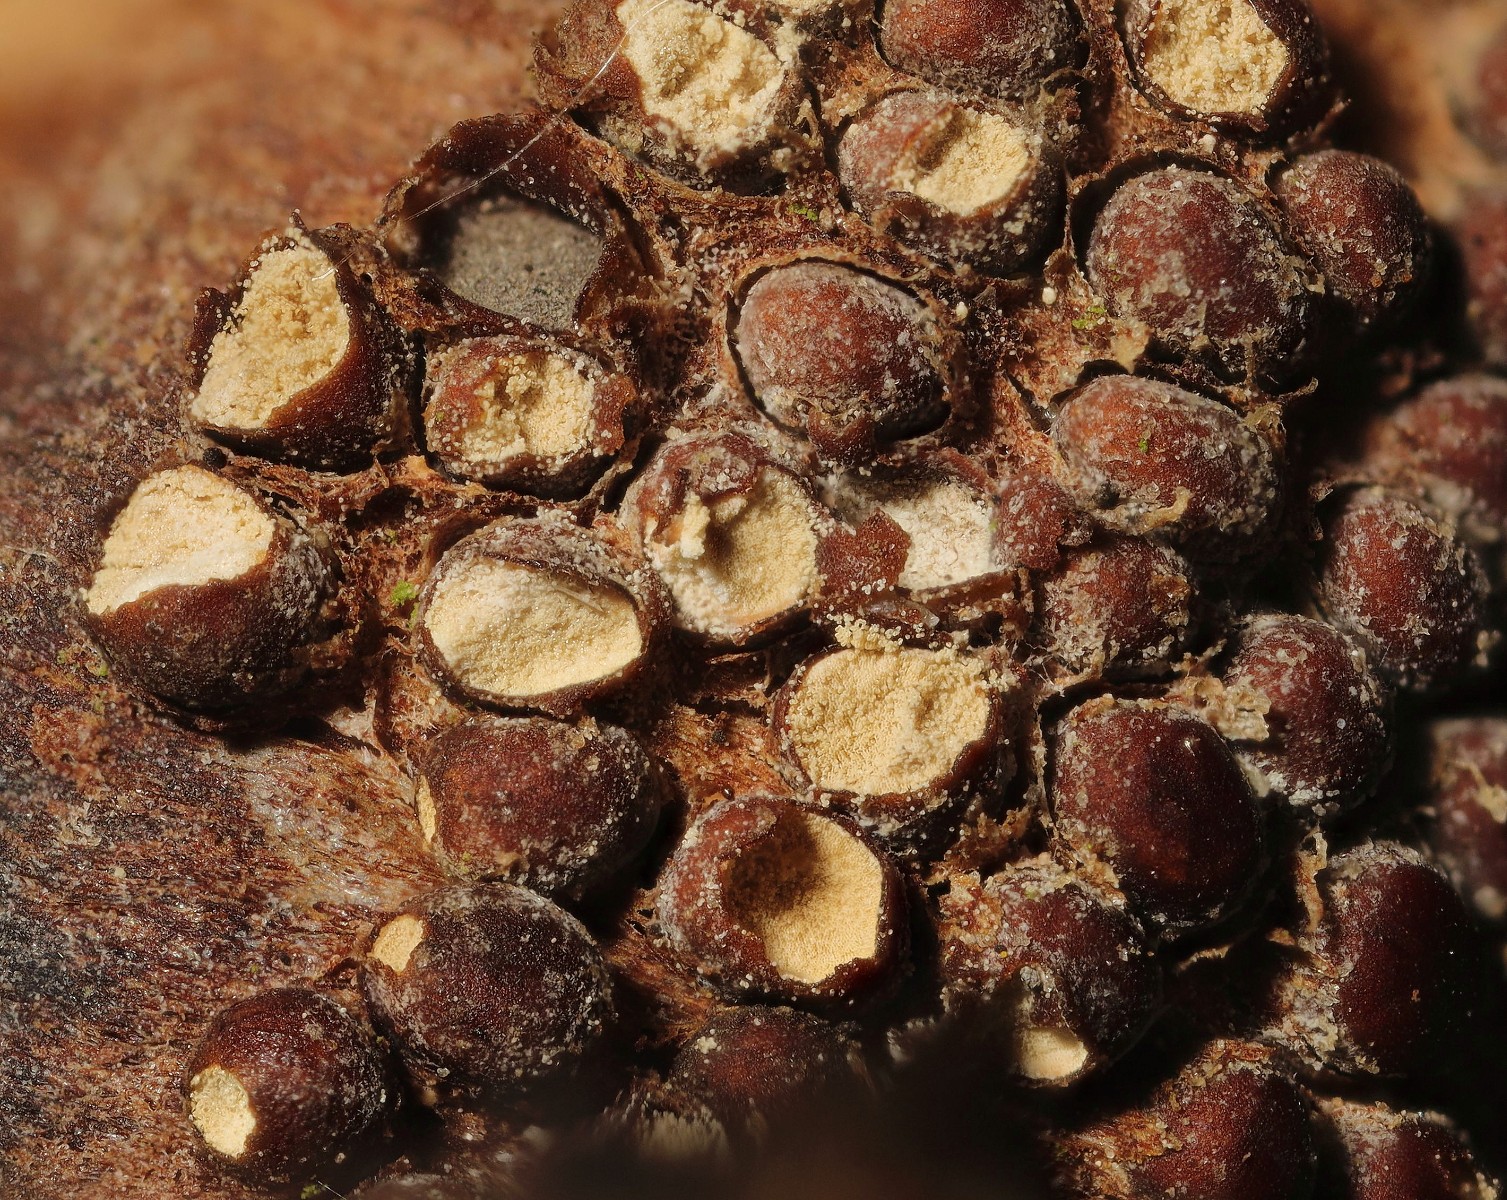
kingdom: Fungi
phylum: Basidiomycota
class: Pucciniomycetes
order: Pucciniales
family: Pucciniastraceae
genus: Thekopsora
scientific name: Thekopsora areolata
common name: grankogle-nålerust
